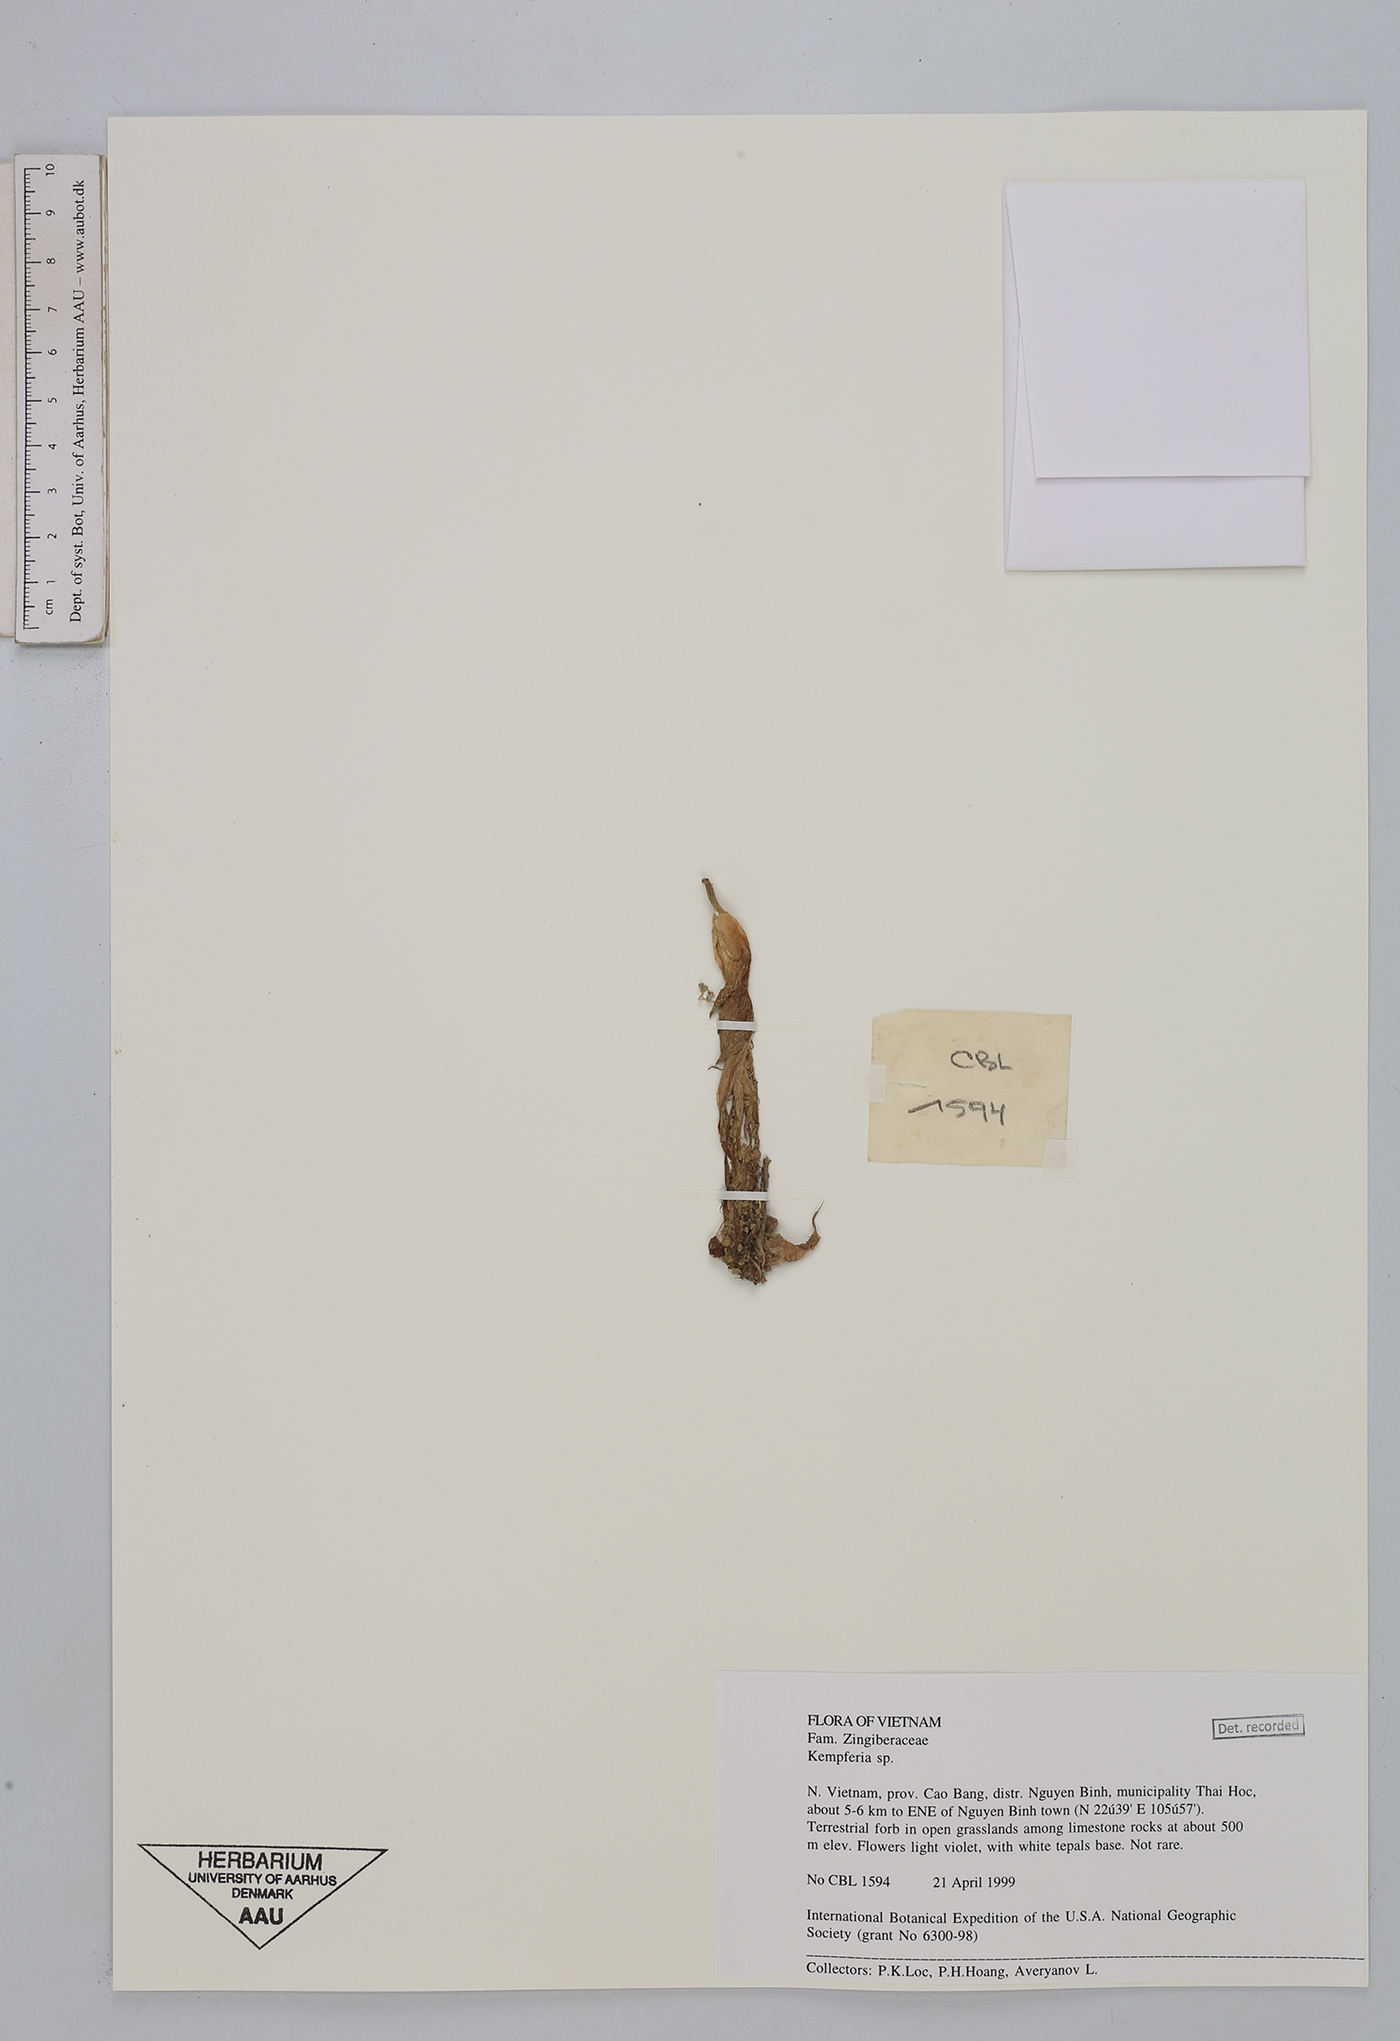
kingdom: Plantae
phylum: Tracheophyta
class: Liliopsida
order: Zingiberales
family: Zingiberaceae
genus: Kaempferia
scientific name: Kaempferia
